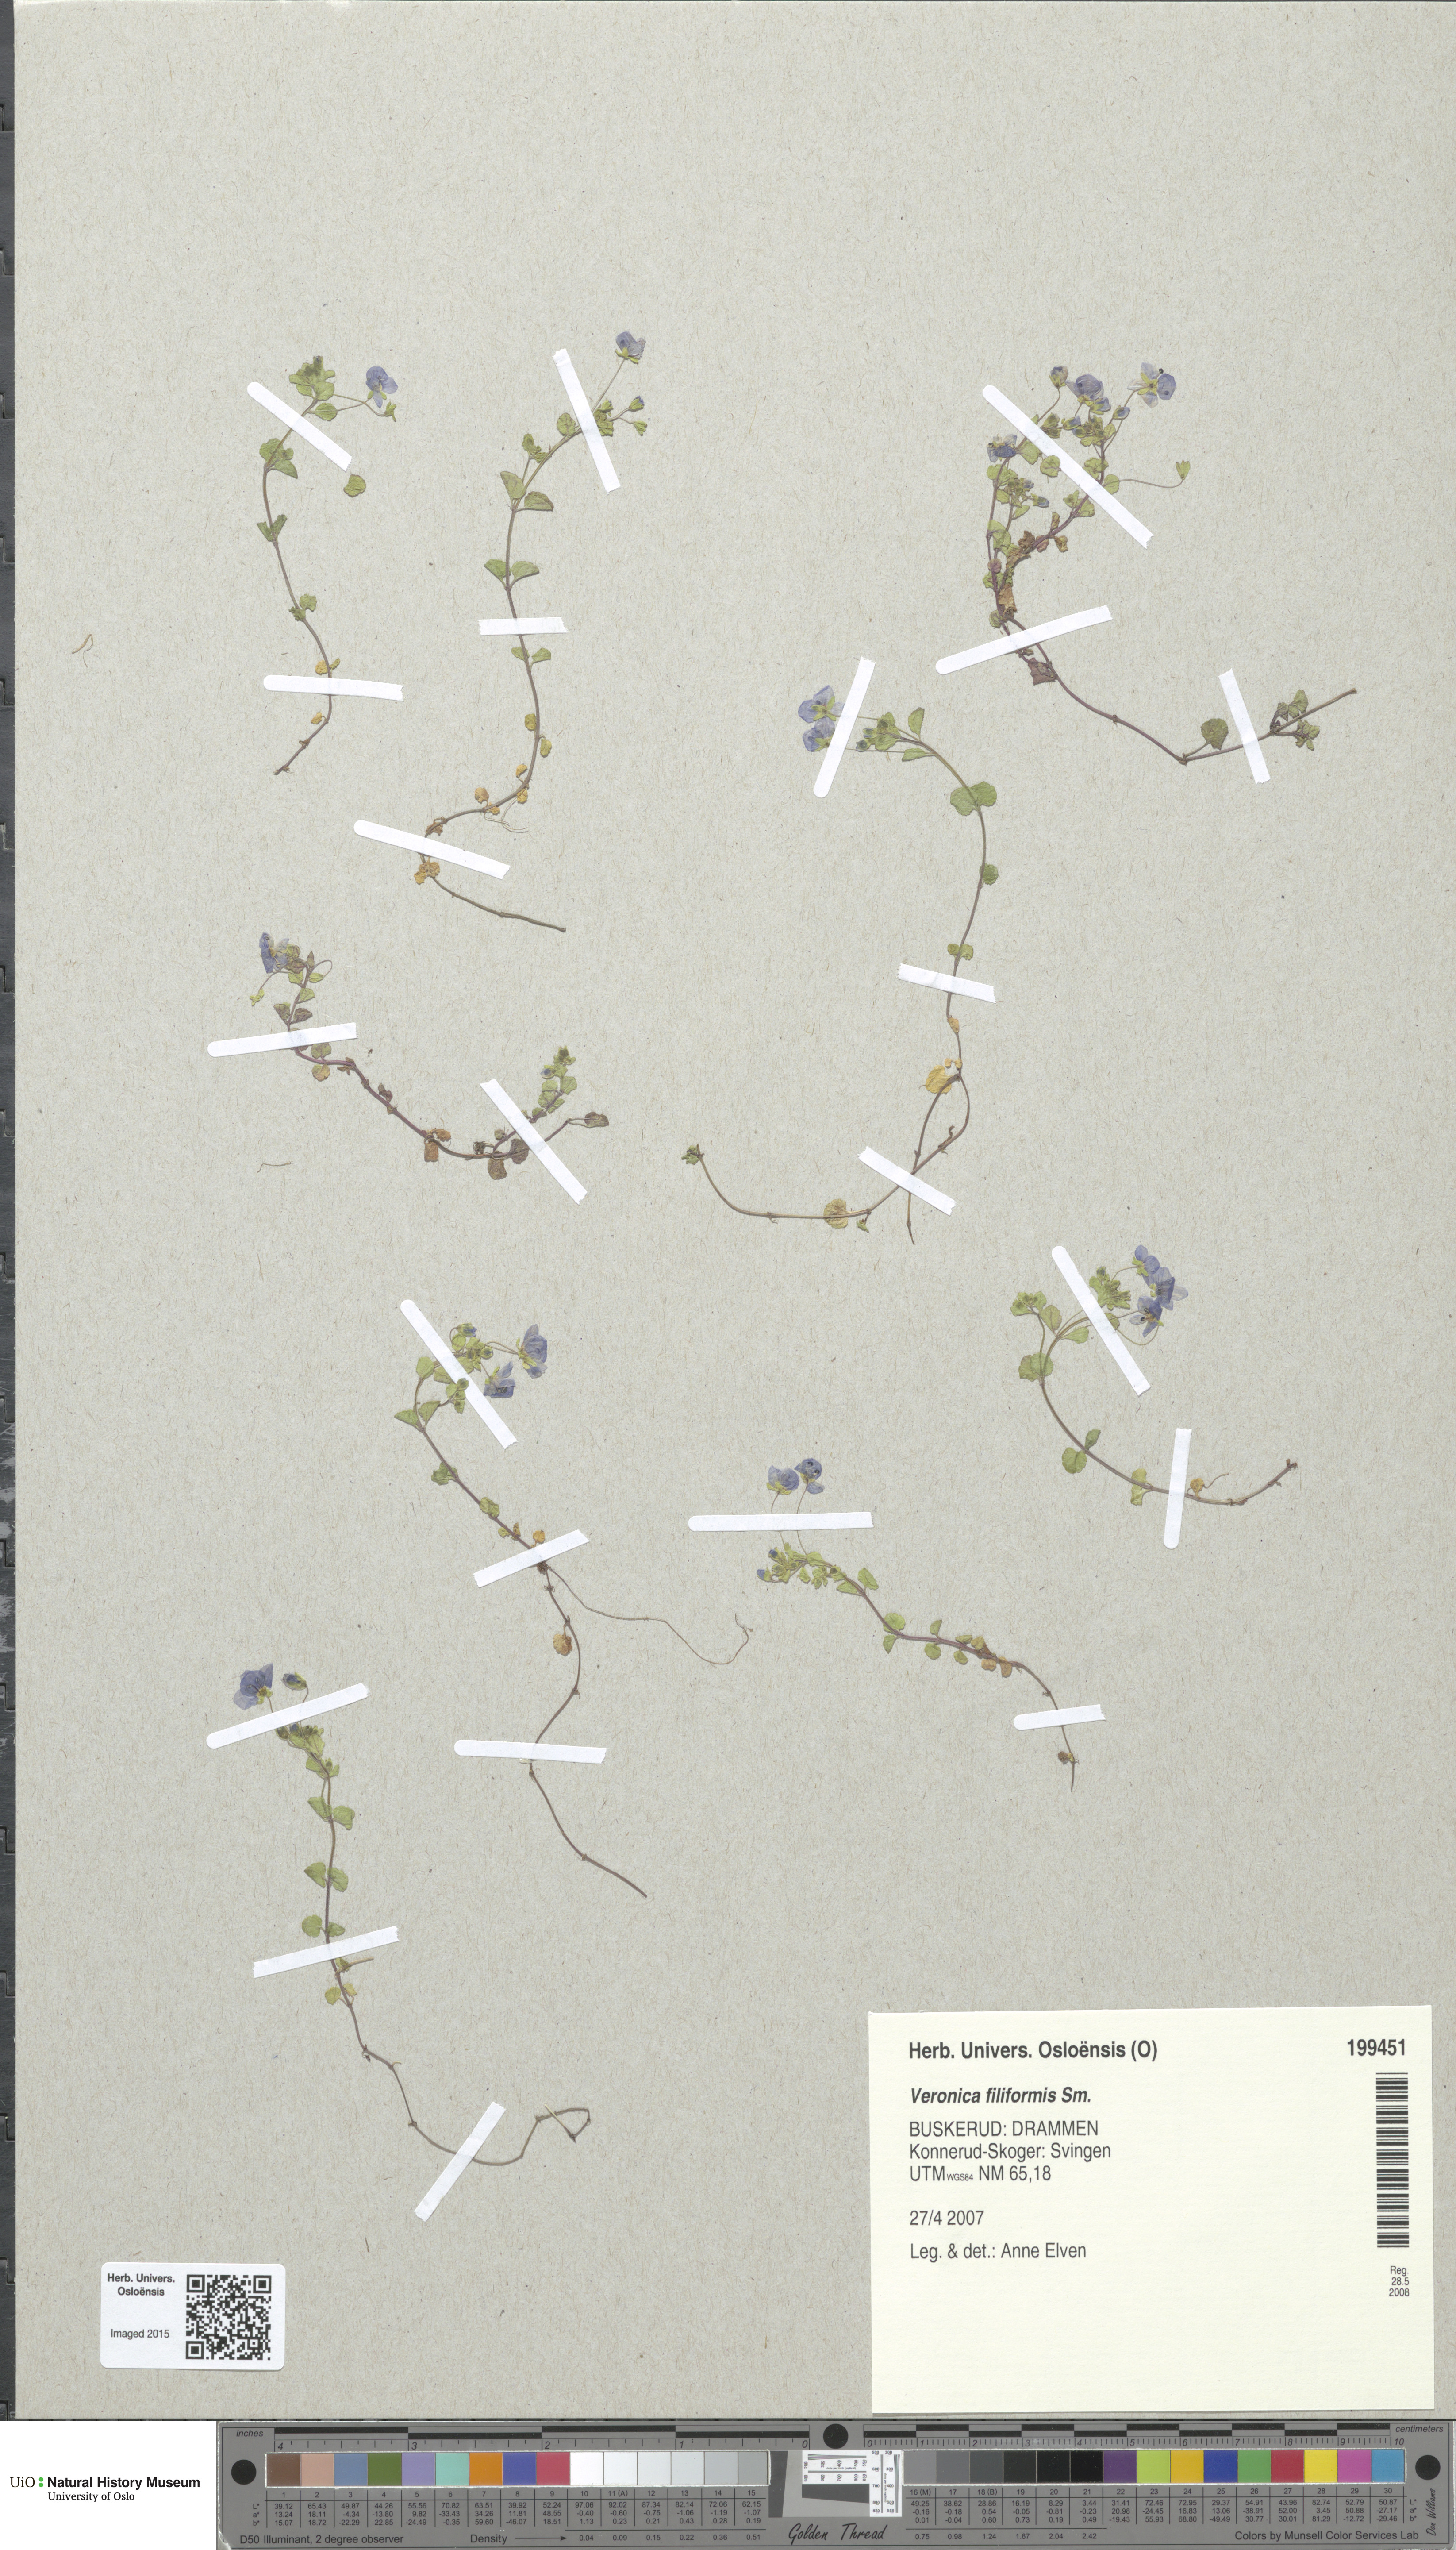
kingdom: Plantae
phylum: Tracheophyta
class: Magnoliopsida
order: Lamiales
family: Plantaginaceae
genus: Veronica
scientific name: Veronica filiformis
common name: Slender speedwell
